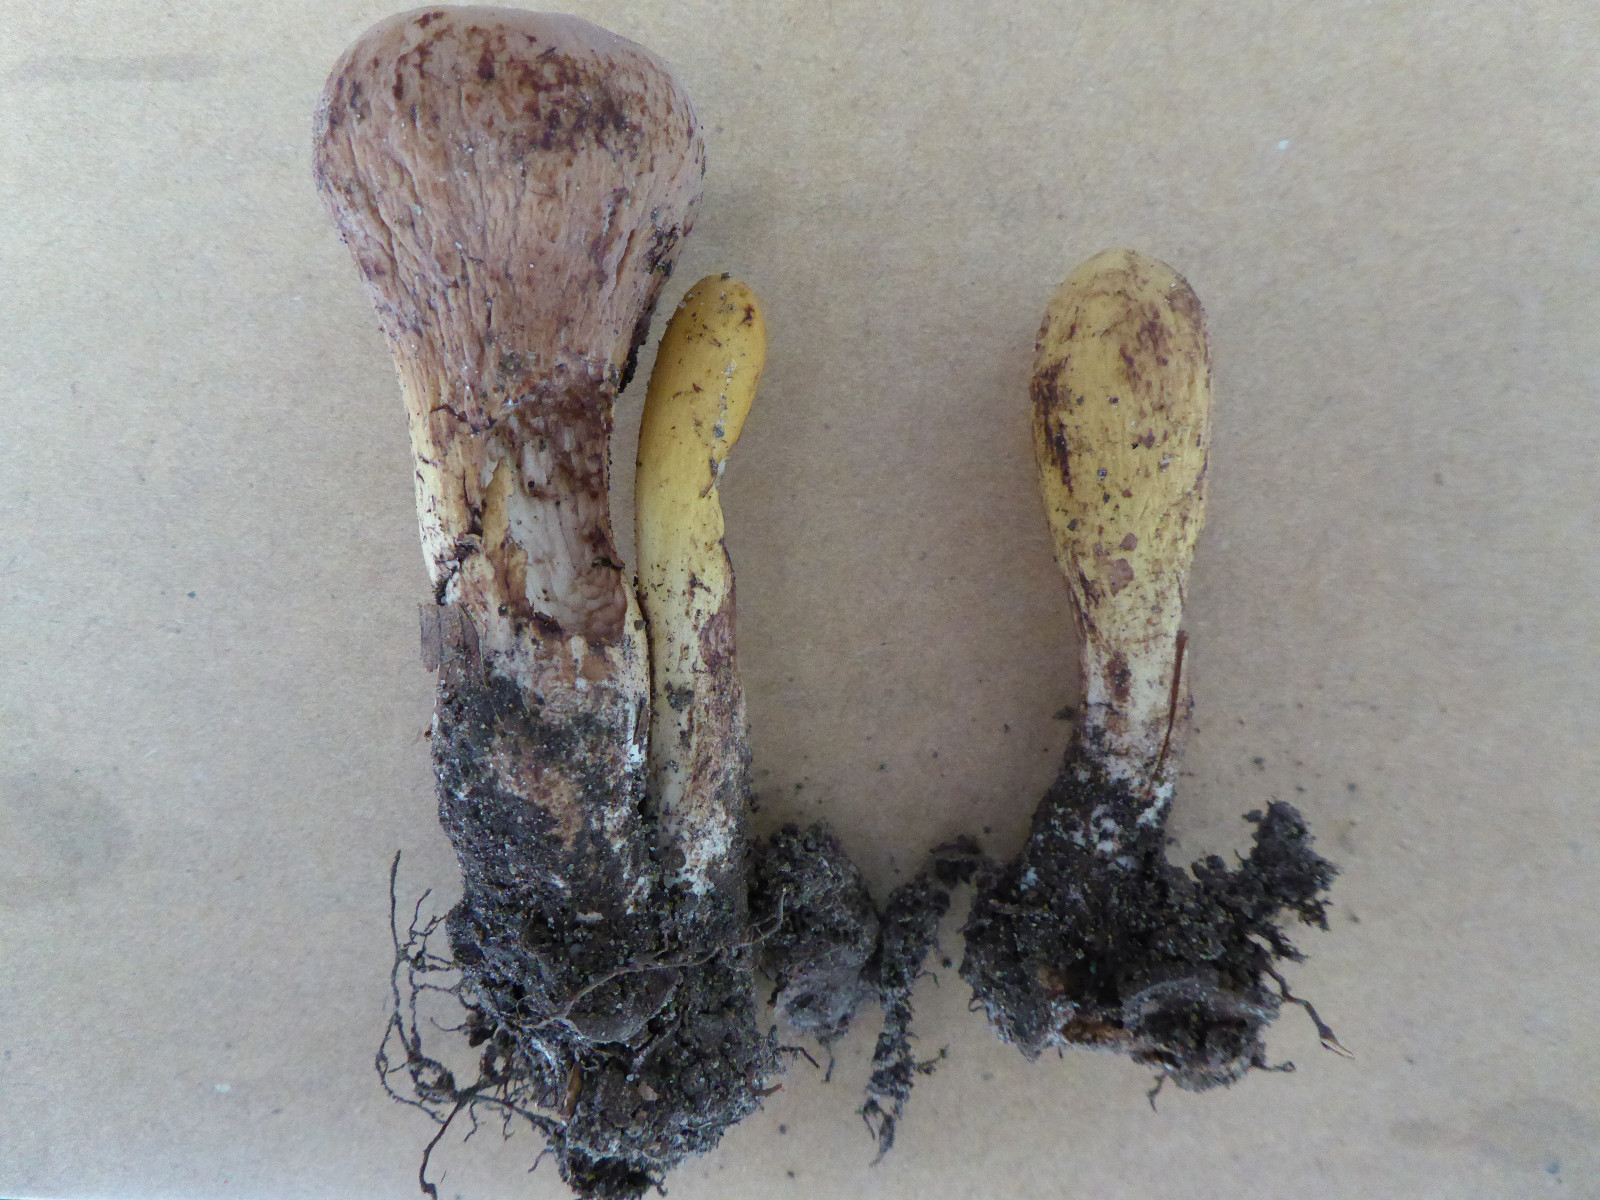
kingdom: Fungi
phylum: Basidiomycota
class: Agaricomycetes
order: Gomphales
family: Clavariadelphaceae
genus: Clavariadelphus
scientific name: Clavariadelphus pistillaris
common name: herkules-kæmpekølle
